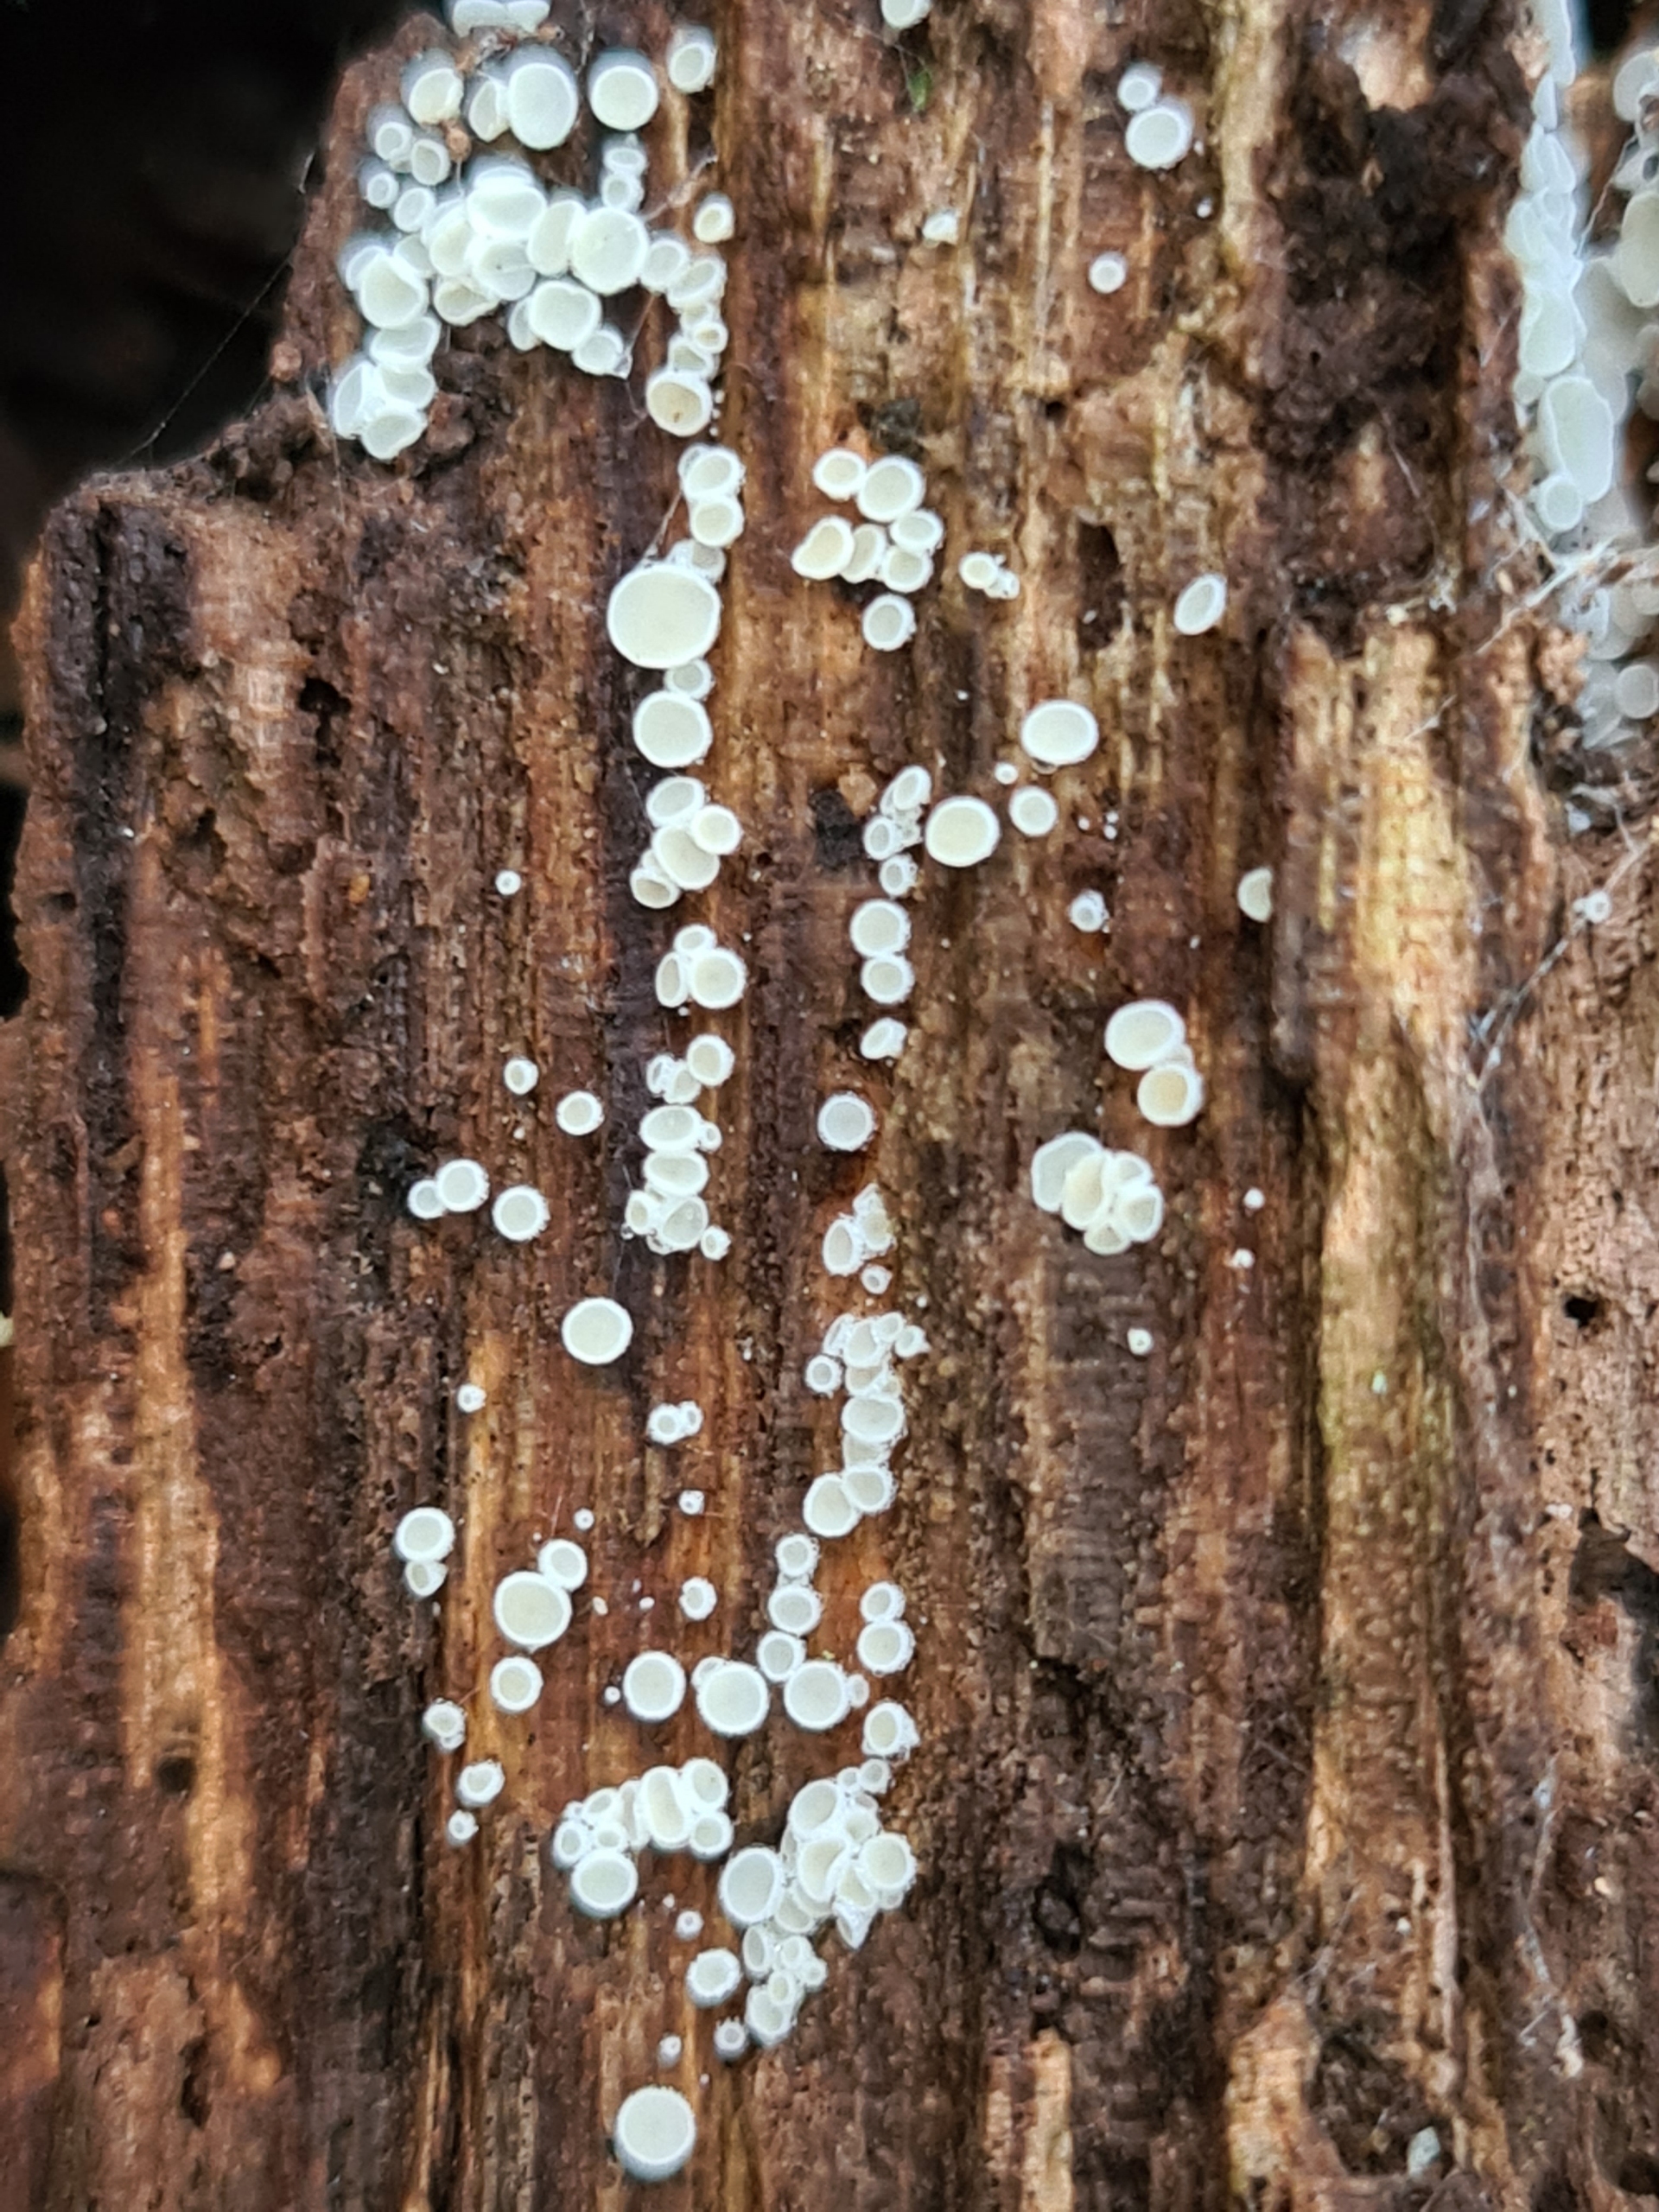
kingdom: Fungi
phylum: Ascomycota
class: Leotiomycetes
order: Helotiales
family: Lachnaceae
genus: Lachnum
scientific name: Lachnum
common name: Frynseskive
